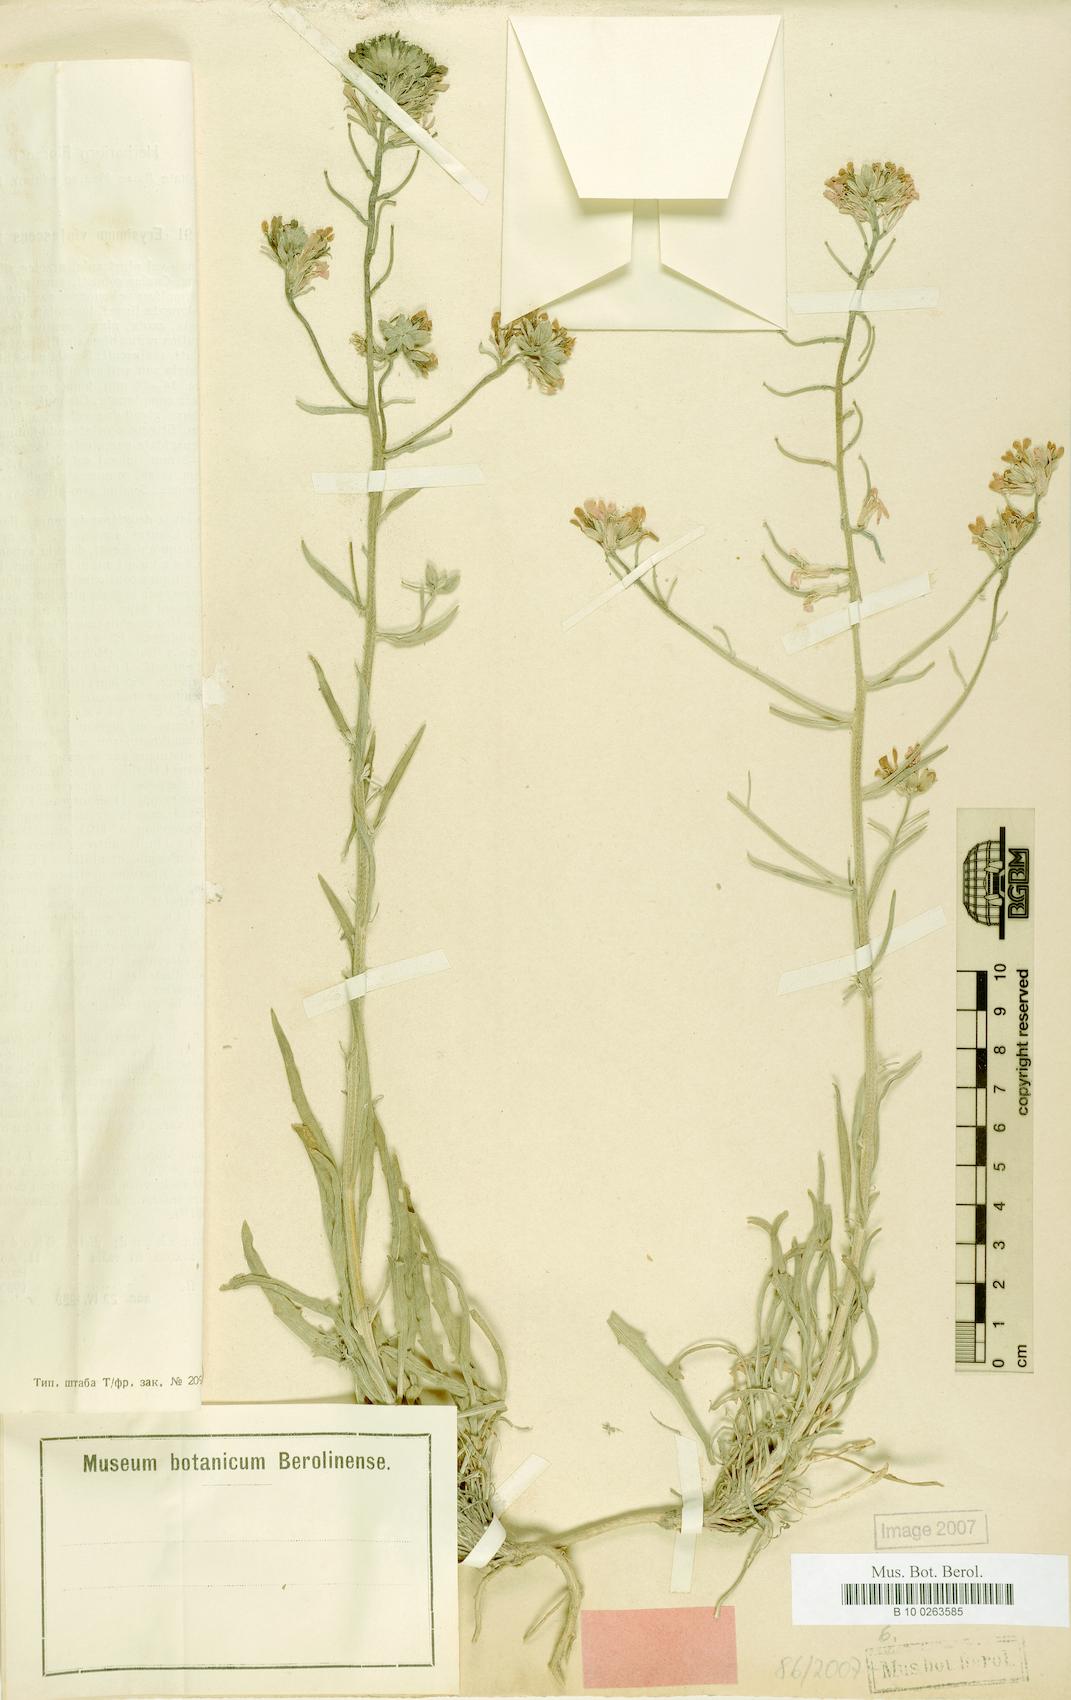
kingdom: Plantae
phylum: Tracheophyta
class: Magnoliopsida
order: Brassicales
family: Brassicaceae
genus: Erysimum
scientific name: Erysimum violascens
